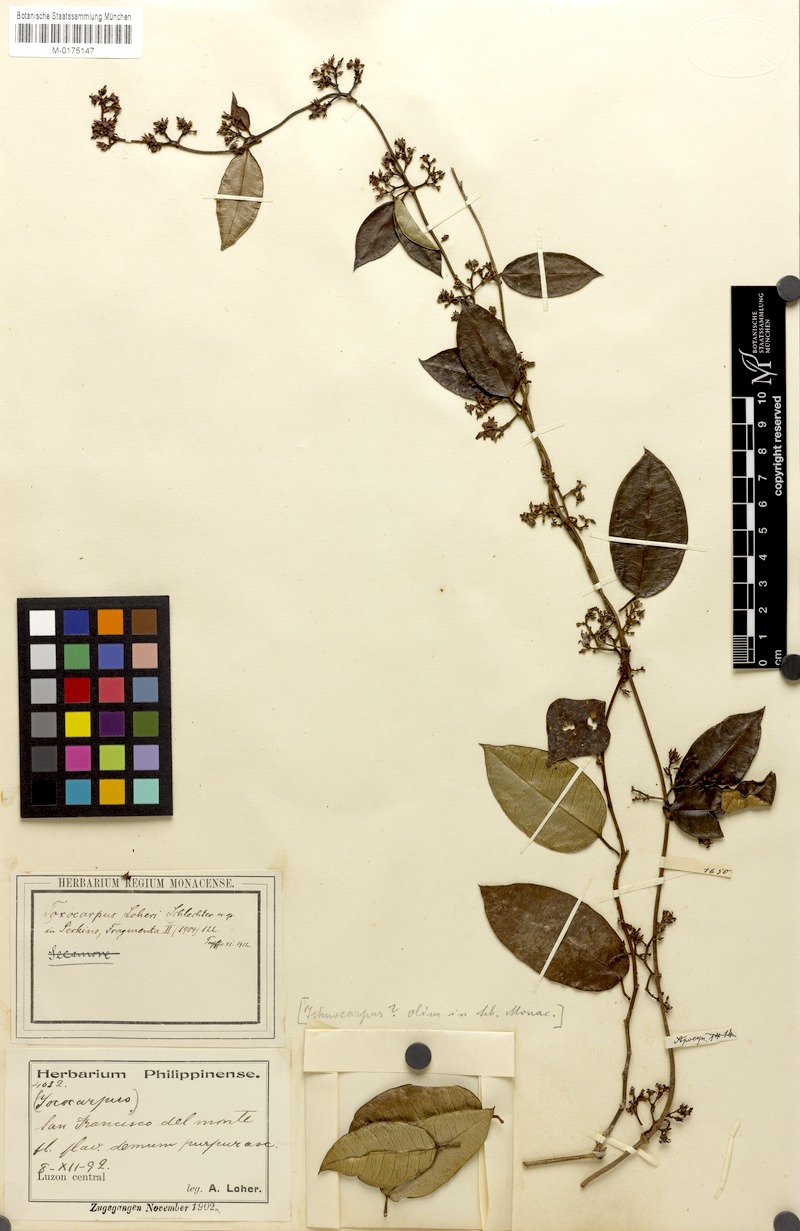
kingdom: Plantae
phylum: Tracheophyta
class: Magnoliopsida
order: Gentianales
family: Apocynaceae
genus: Toxocarpus
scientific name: Toxocarpus loheri
